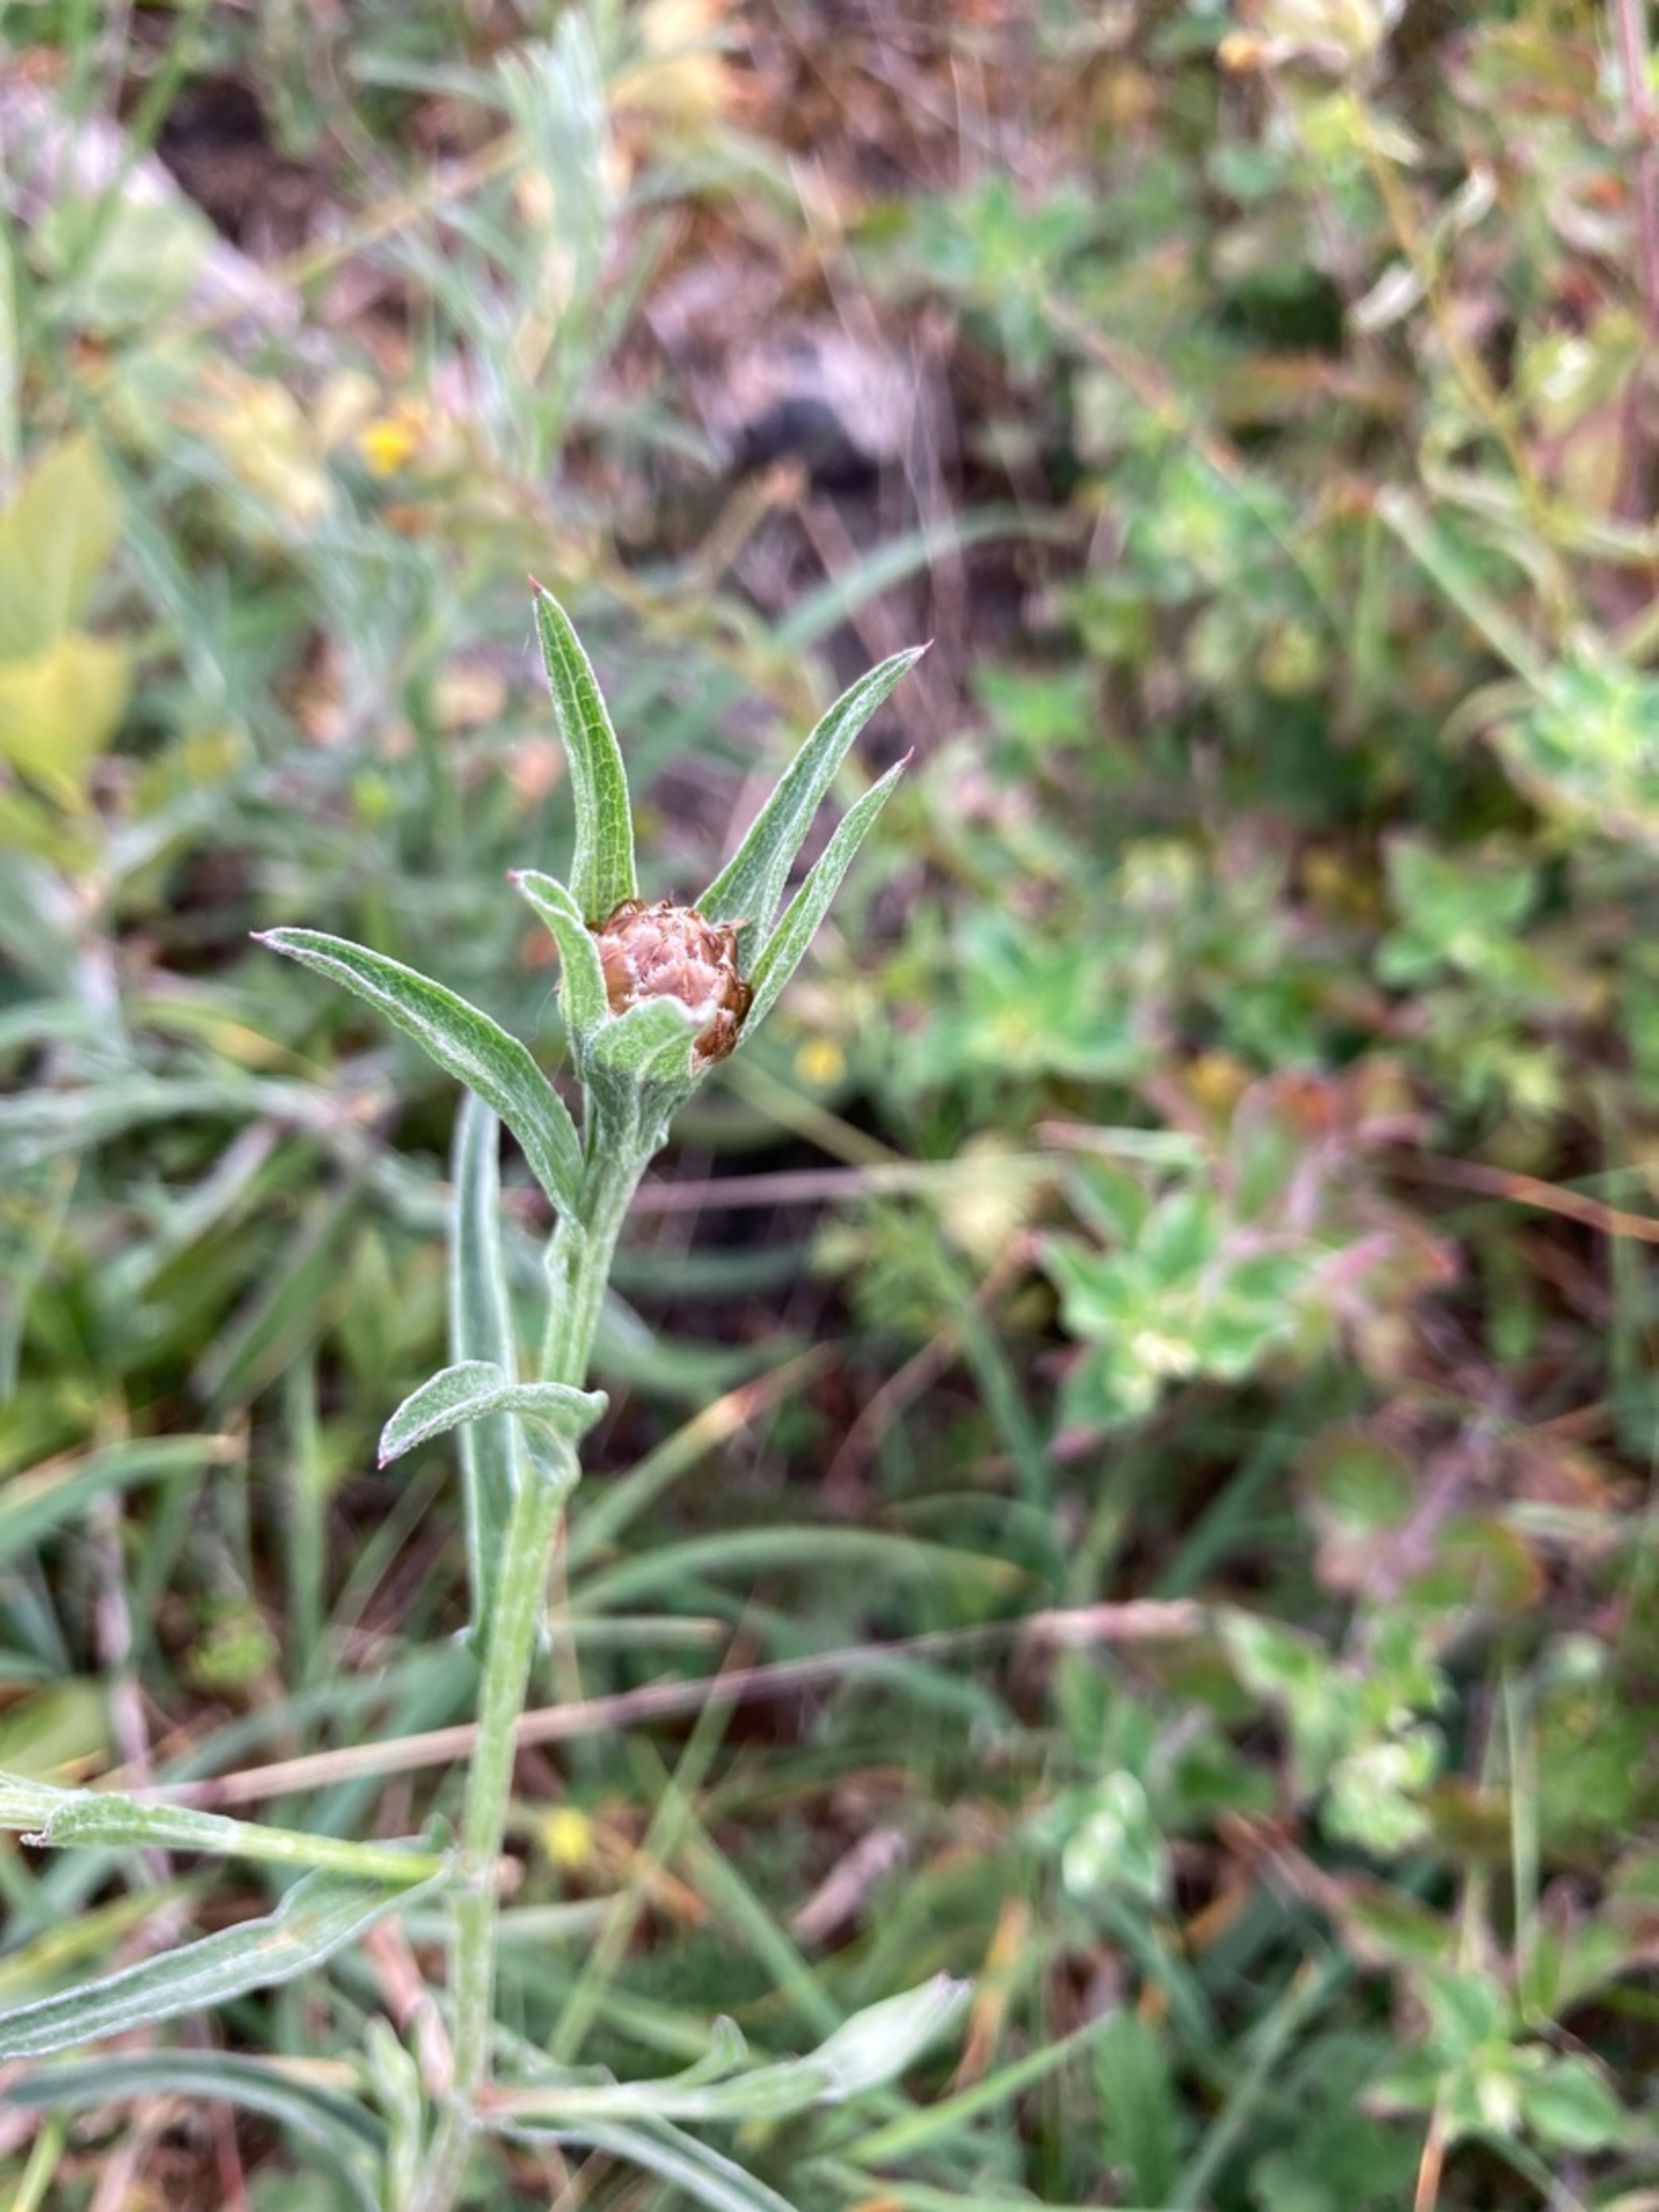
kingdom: Plantae
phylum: Tracheophyta
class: Magnoliopsida
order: Asterales
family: Asteraceae
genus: Centaurea
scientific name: Centaurea jacea
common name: Almindelig knopurt
